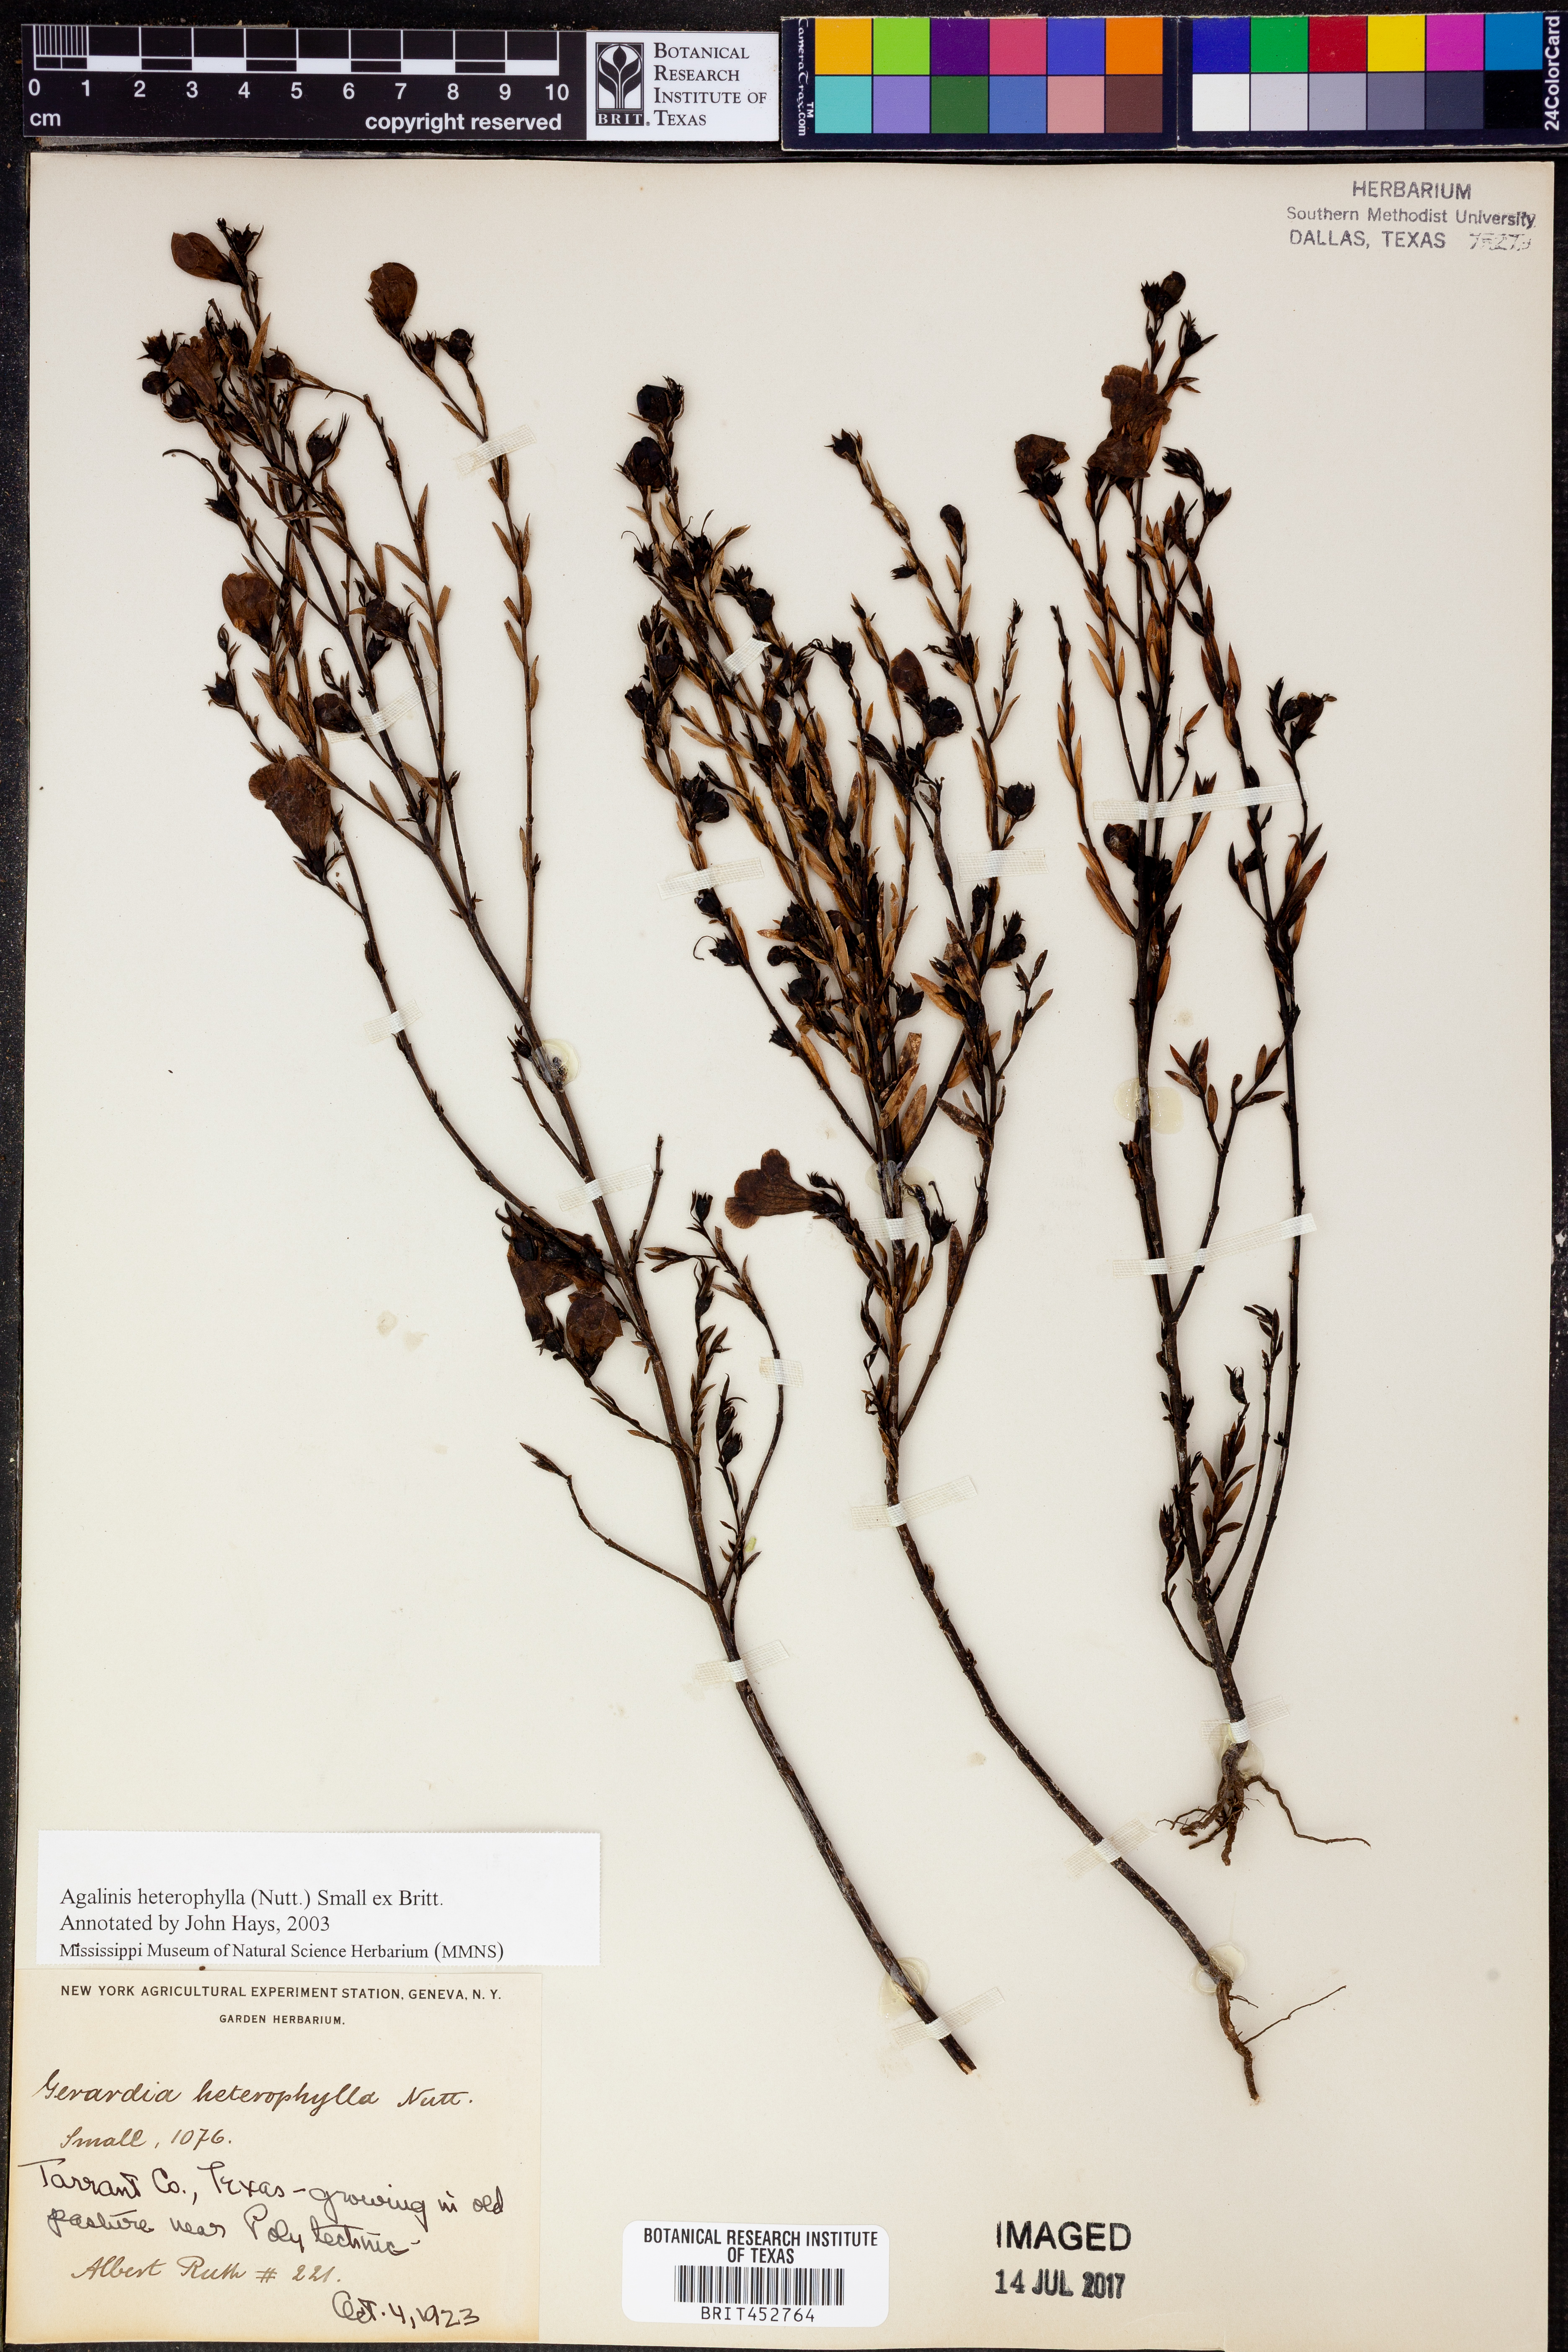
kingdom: Plantae
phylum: Tracheophyta
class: Magnoliopsida
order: Lamiales
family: Orobanchaceae
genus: Agalinis
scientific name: Agalinis heterophylla
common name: Prairie agalinis
